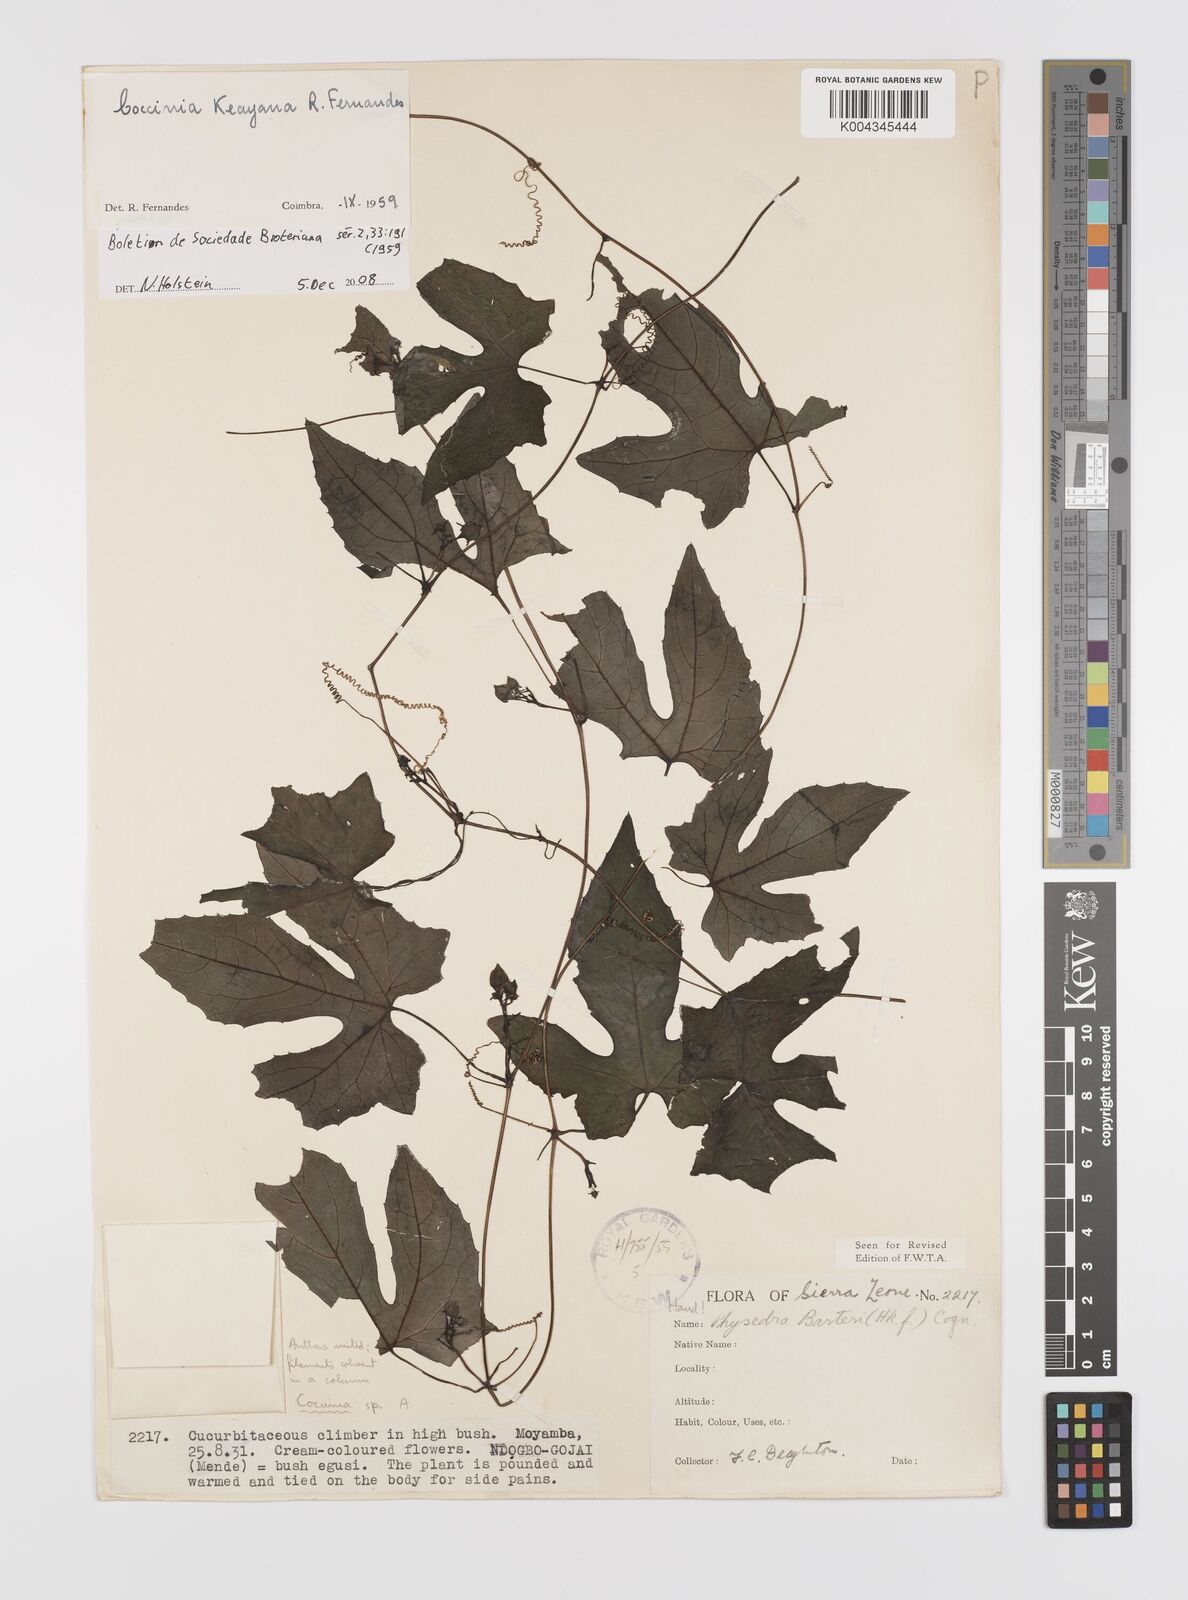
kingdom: Plantae
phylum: Tracheophyta
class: Magnoliopsida
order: Cucurbitales
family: Cucurbitaceae
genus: Coccinia
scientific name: Coccinia keayana
